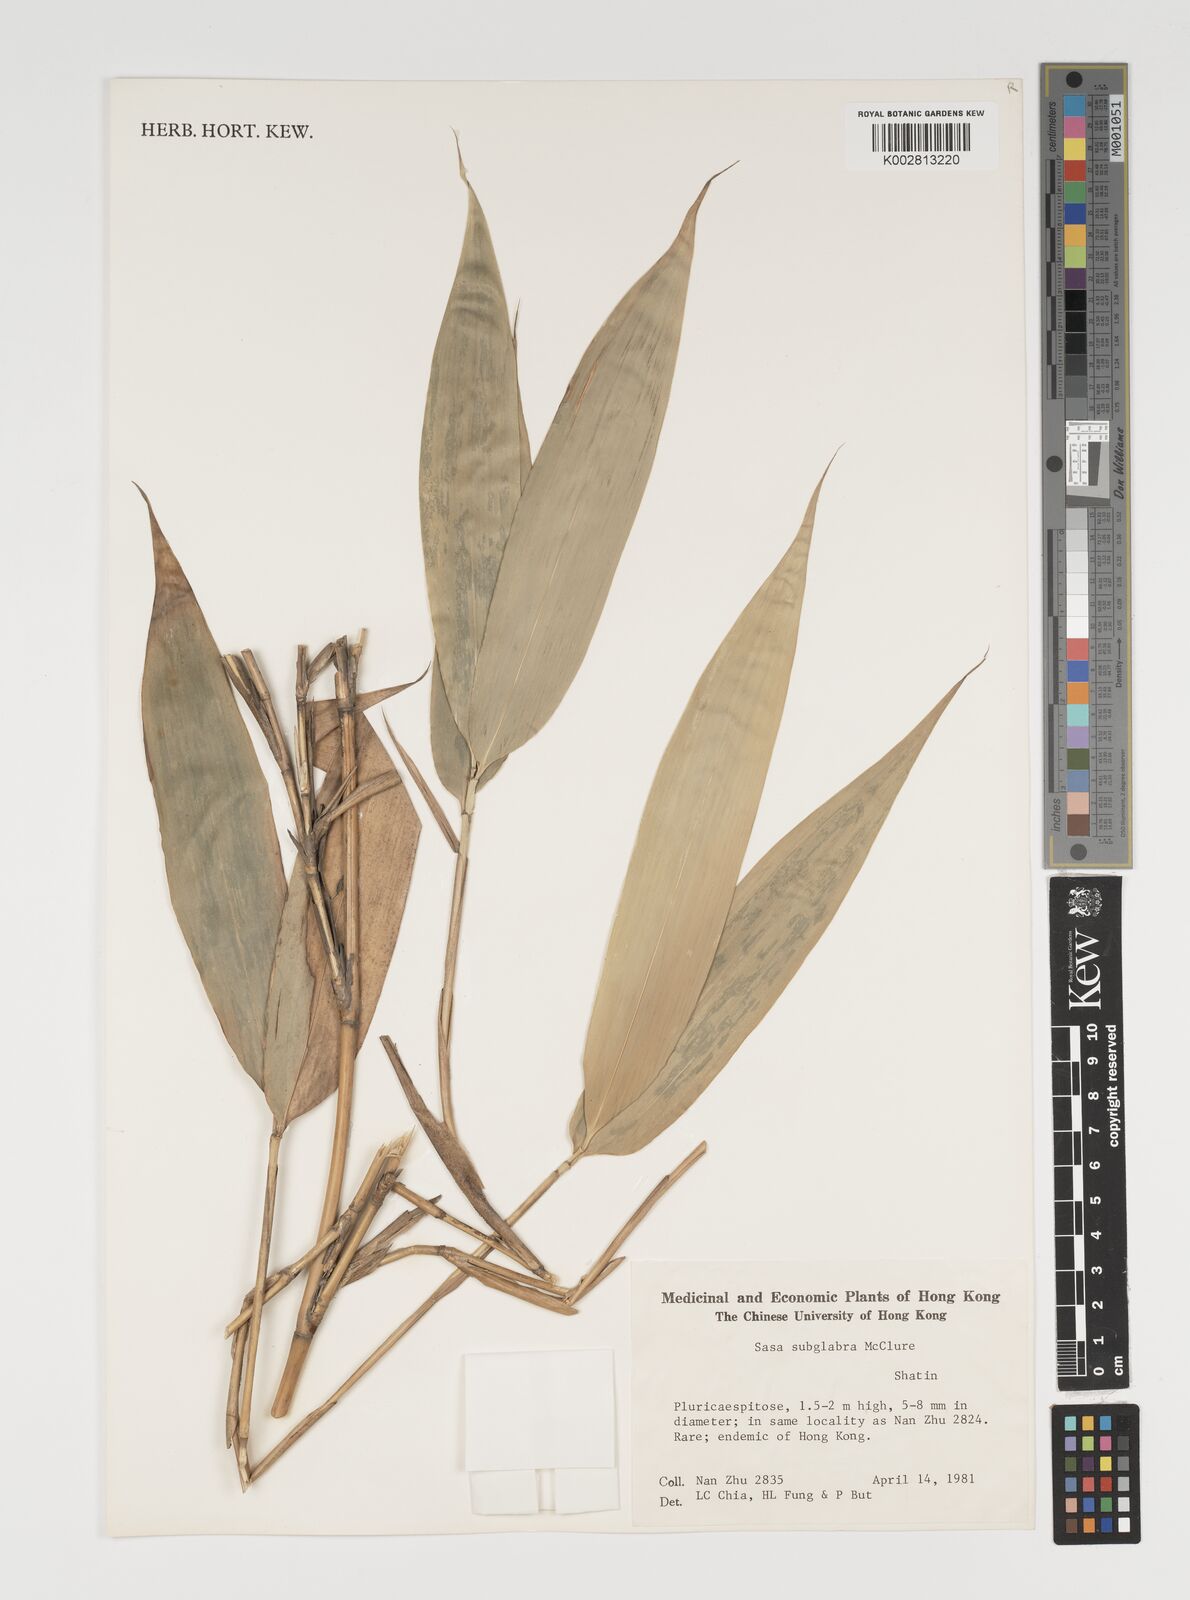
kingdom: Plantae
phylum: Tracheophyta
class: Liliopsida
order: Poales
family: Poaceae
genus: Sasa
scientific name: Sasa subglabra
